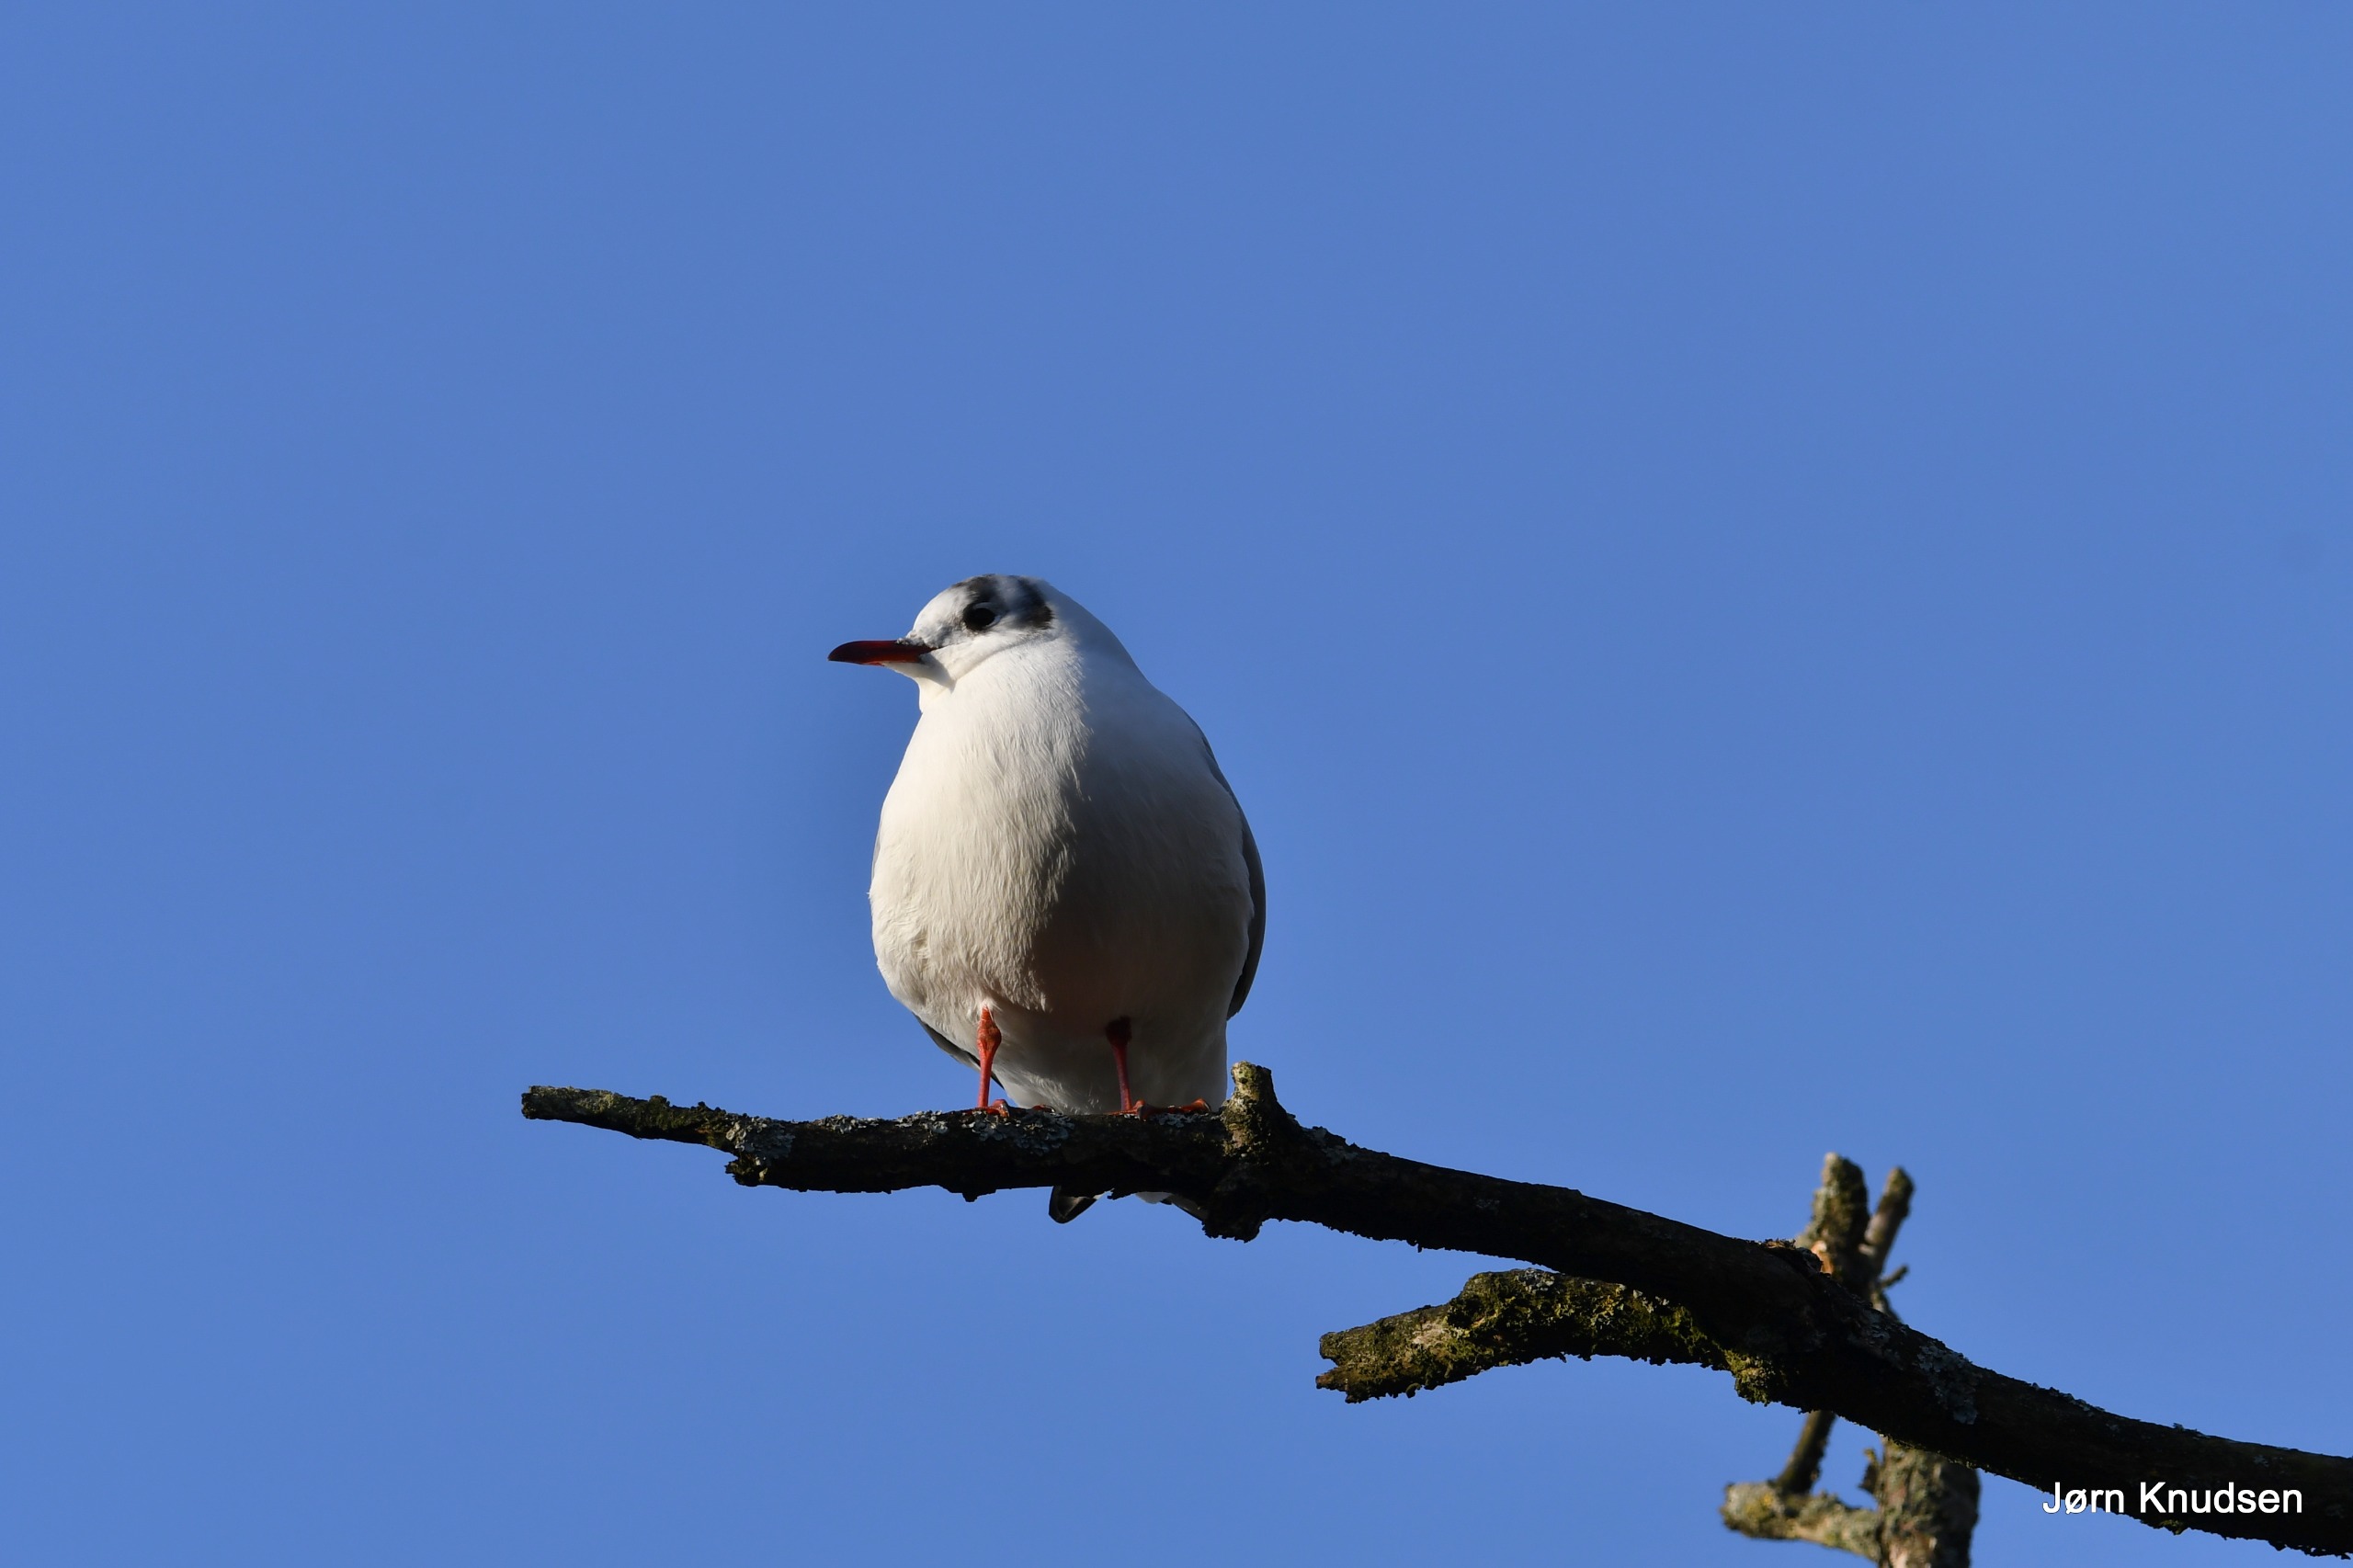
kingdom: Animalia
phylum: Chordata
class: Aves
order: Charadriiformes
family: Laridae
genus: Chroicocephalus
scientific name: Chroicocephalus ridibundus
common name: Hættemåge
